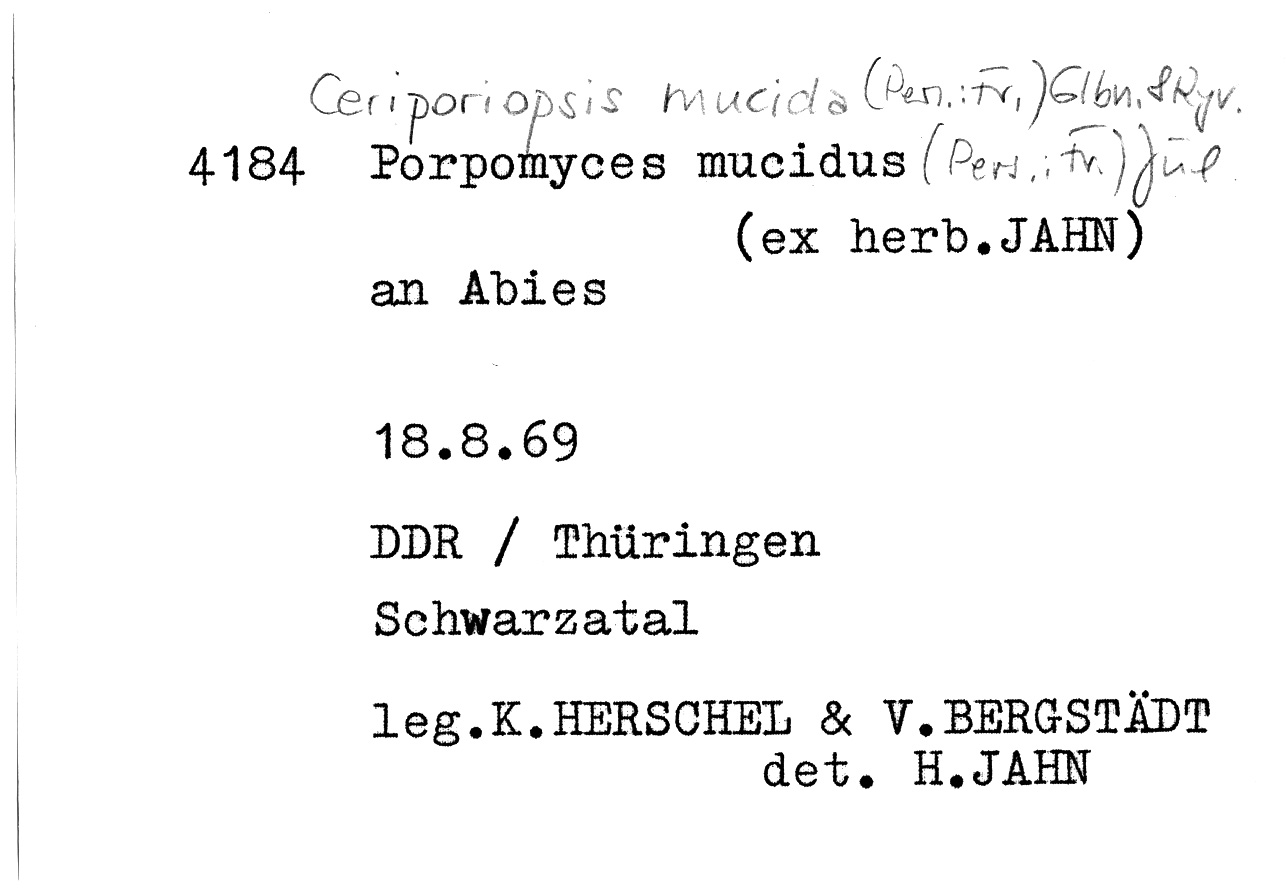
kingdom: Fungi
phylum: Basidiomycota
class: Agaricomycetes
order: Polyporales
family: Meruliaceae
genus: Ceriporiopsis
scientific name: Ceriporiopsis mucida
